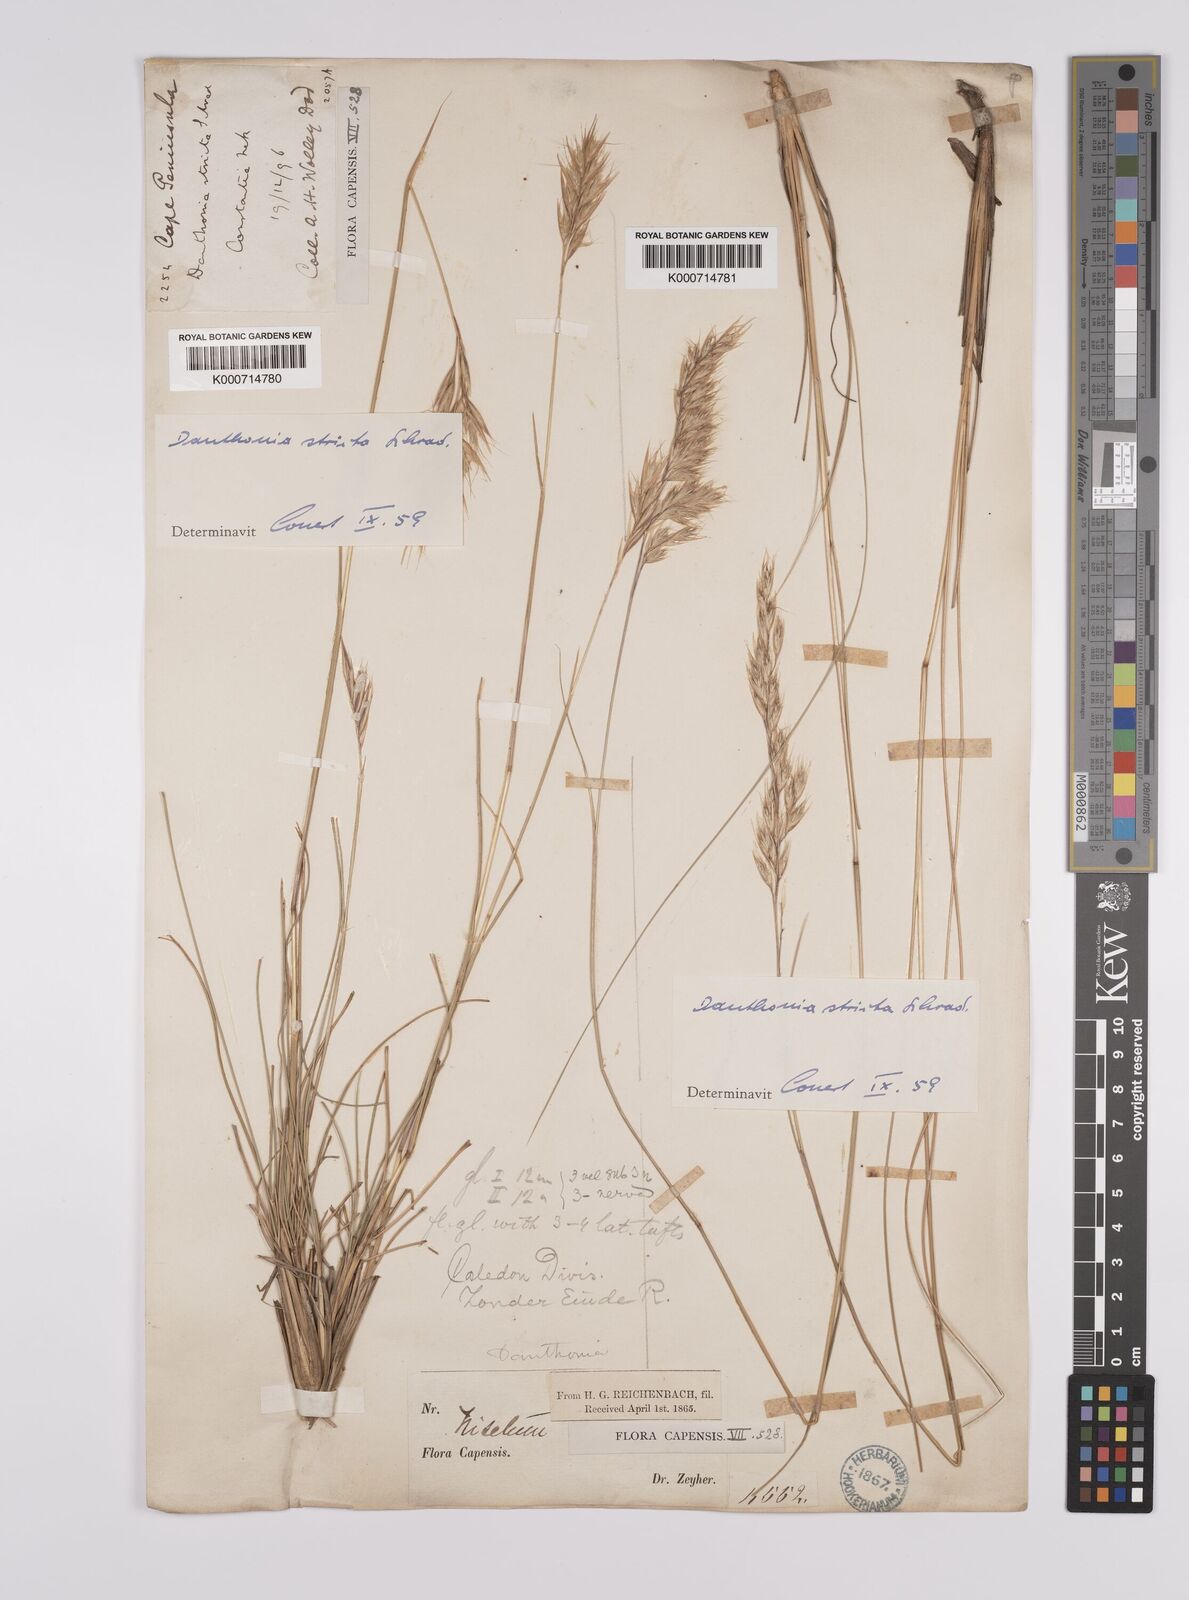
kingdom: Plantae
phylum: Tracheophyta
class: Liliopsida
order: Poales
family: Poaceae
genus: Rytidosperma
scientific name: Rytidosperma
